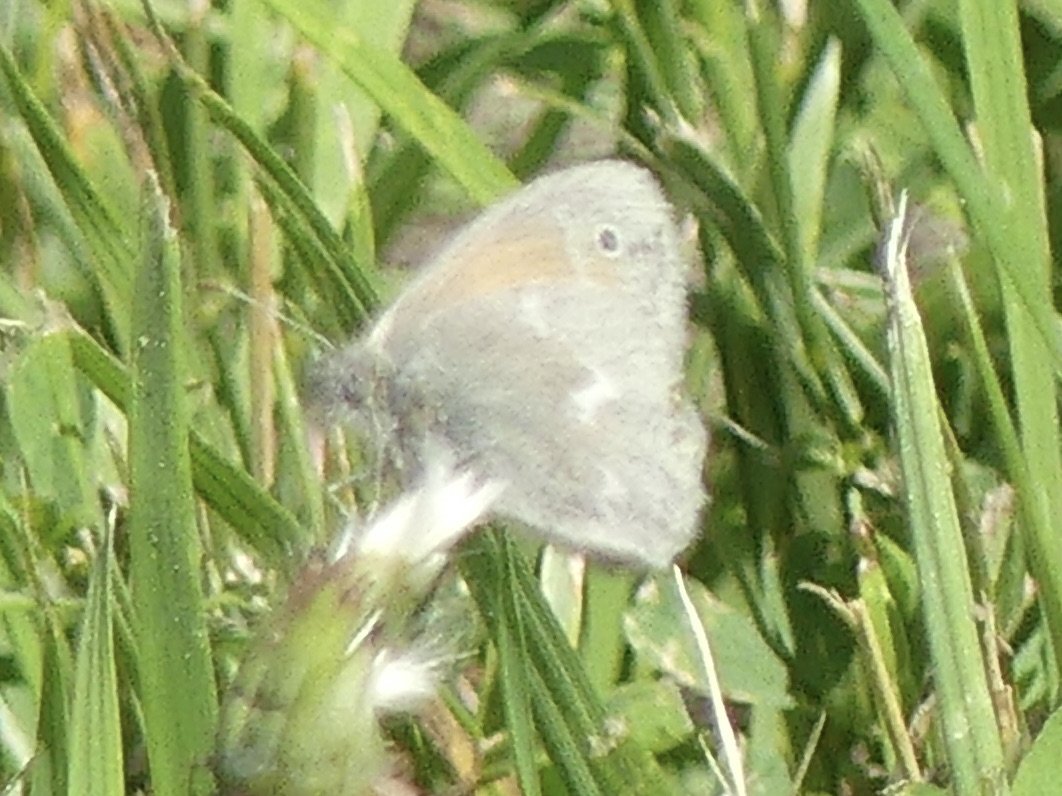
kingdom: Animalia
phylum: Arthropoda
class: Insecta
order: Lepidoptera
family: Nymphalidae
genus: Coenonympha
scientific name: Coenonympha tullia
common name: Large Heath
